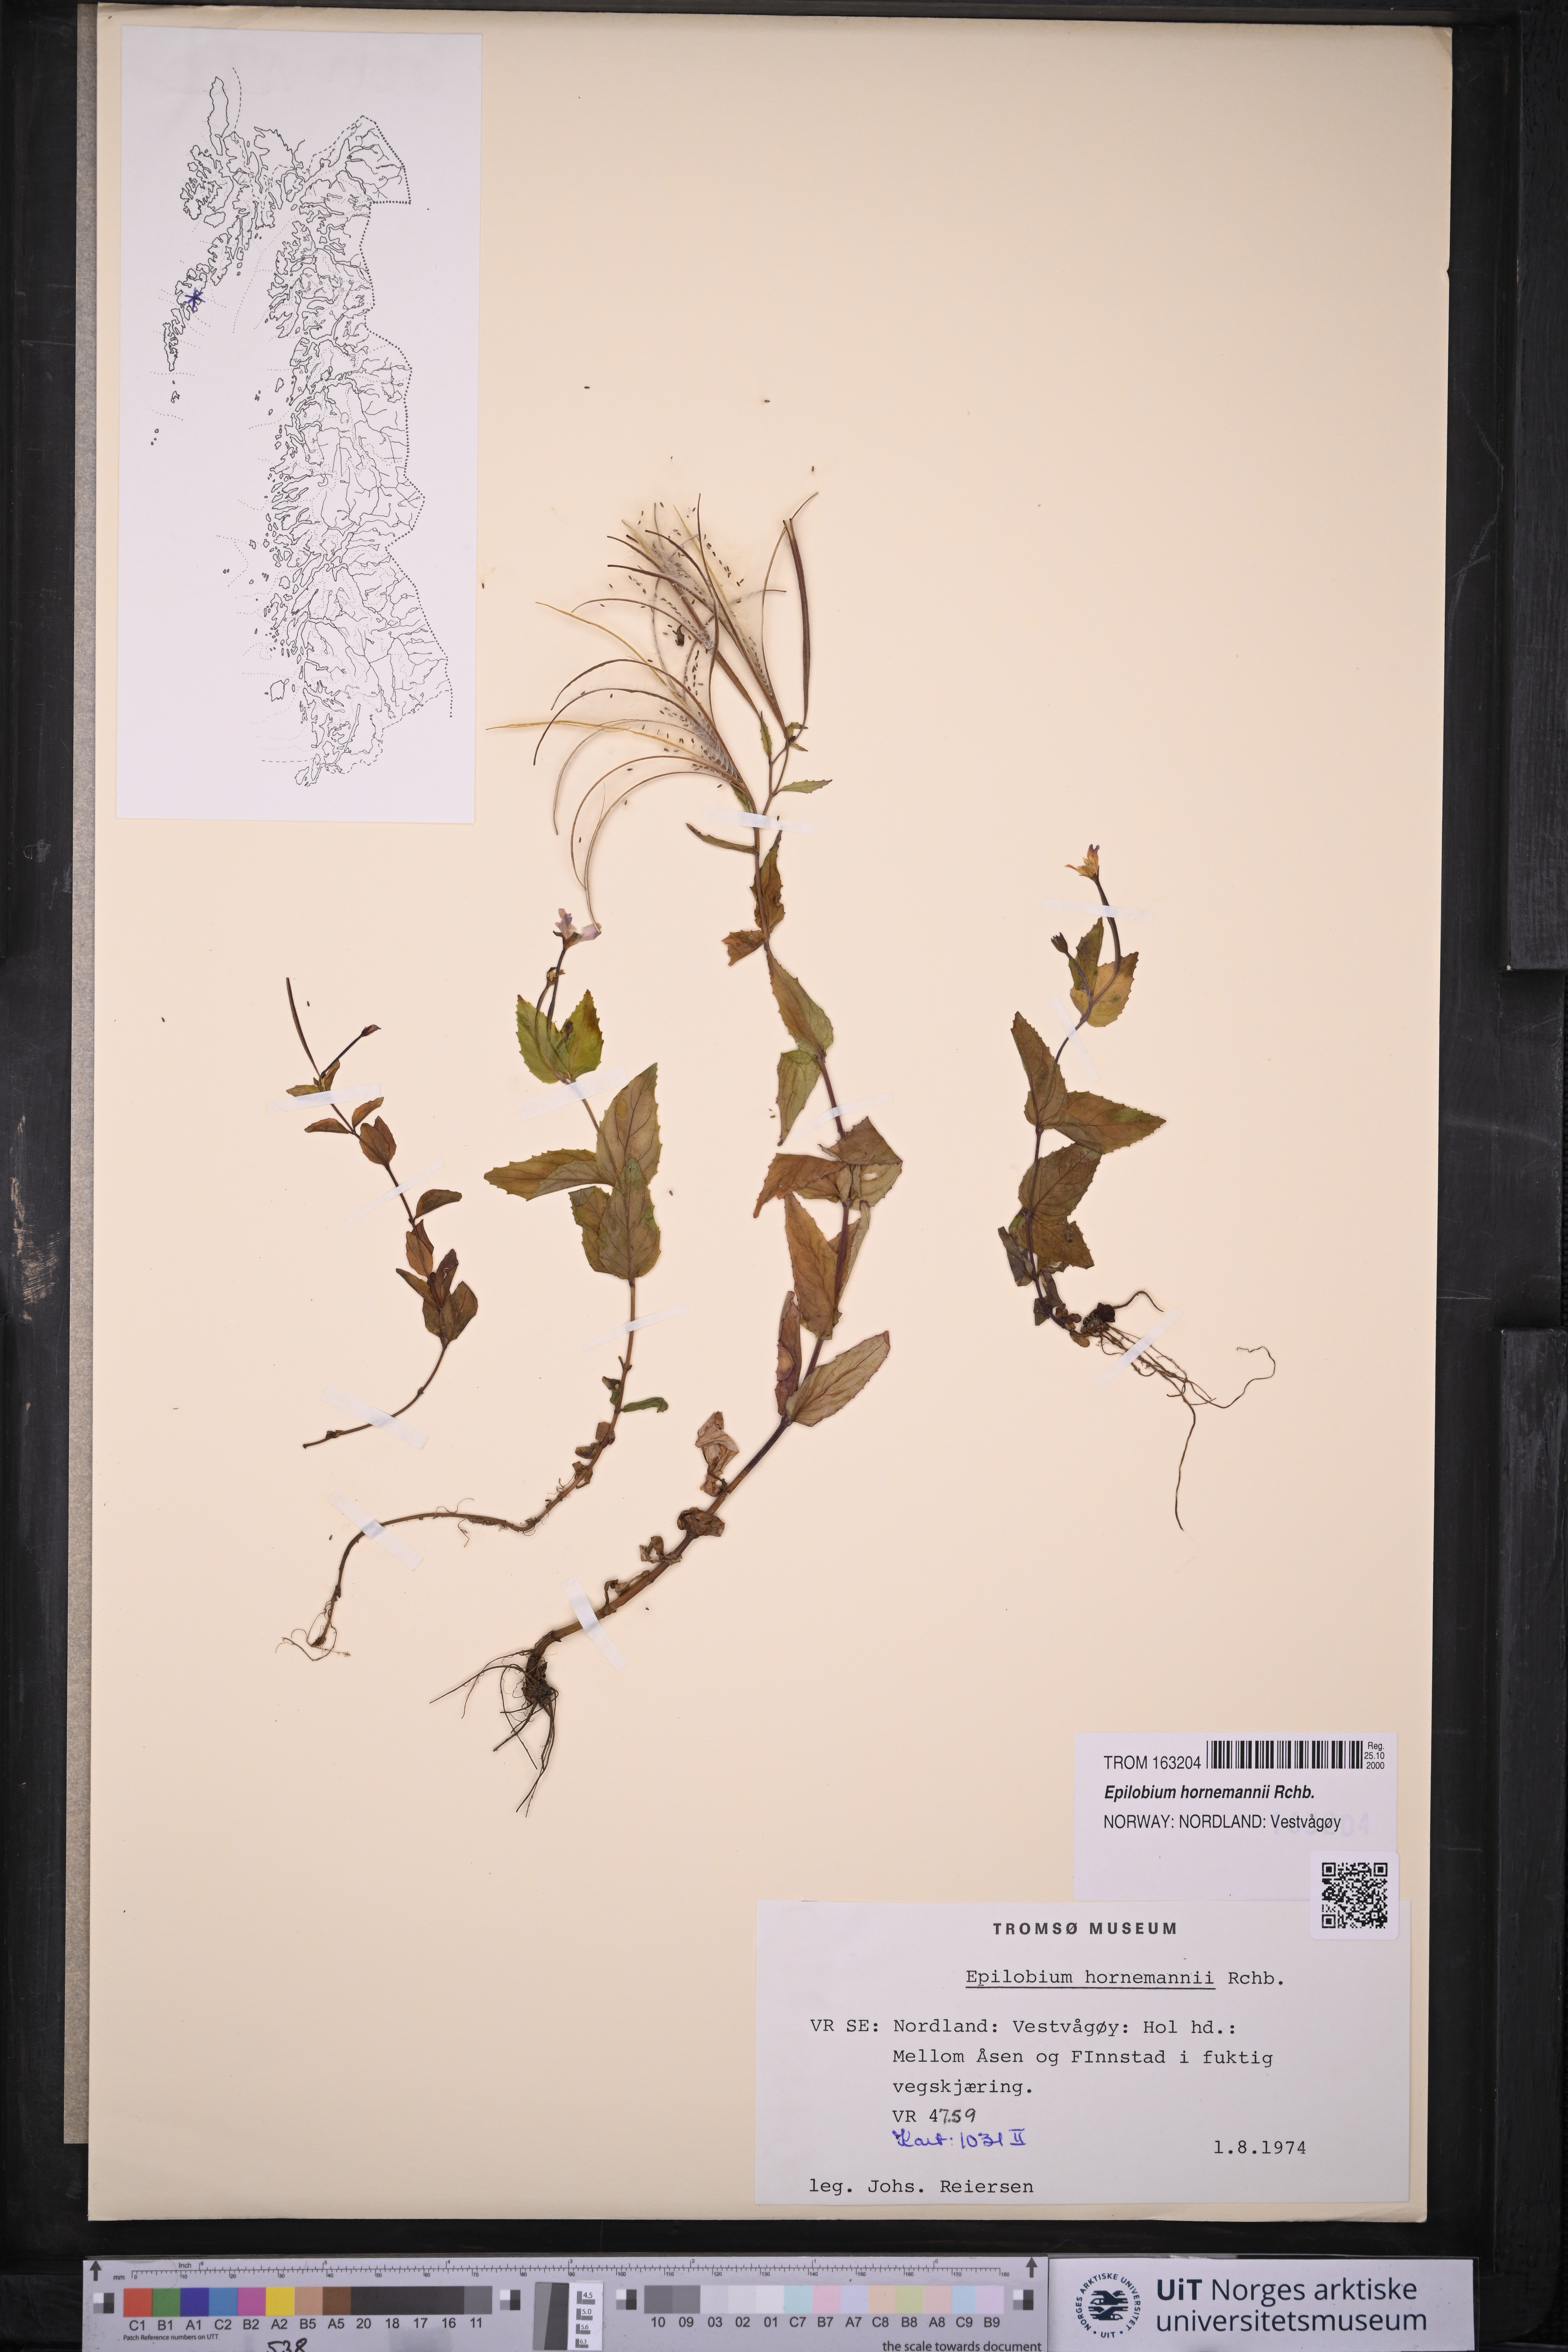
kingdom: Plantae
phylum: Tracheophyta
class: Magnoliopsida
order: Myrtales
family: Onagraceae
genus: Epilobium
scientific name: Epilobium hornemannii
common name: Hornemann's willowherb
